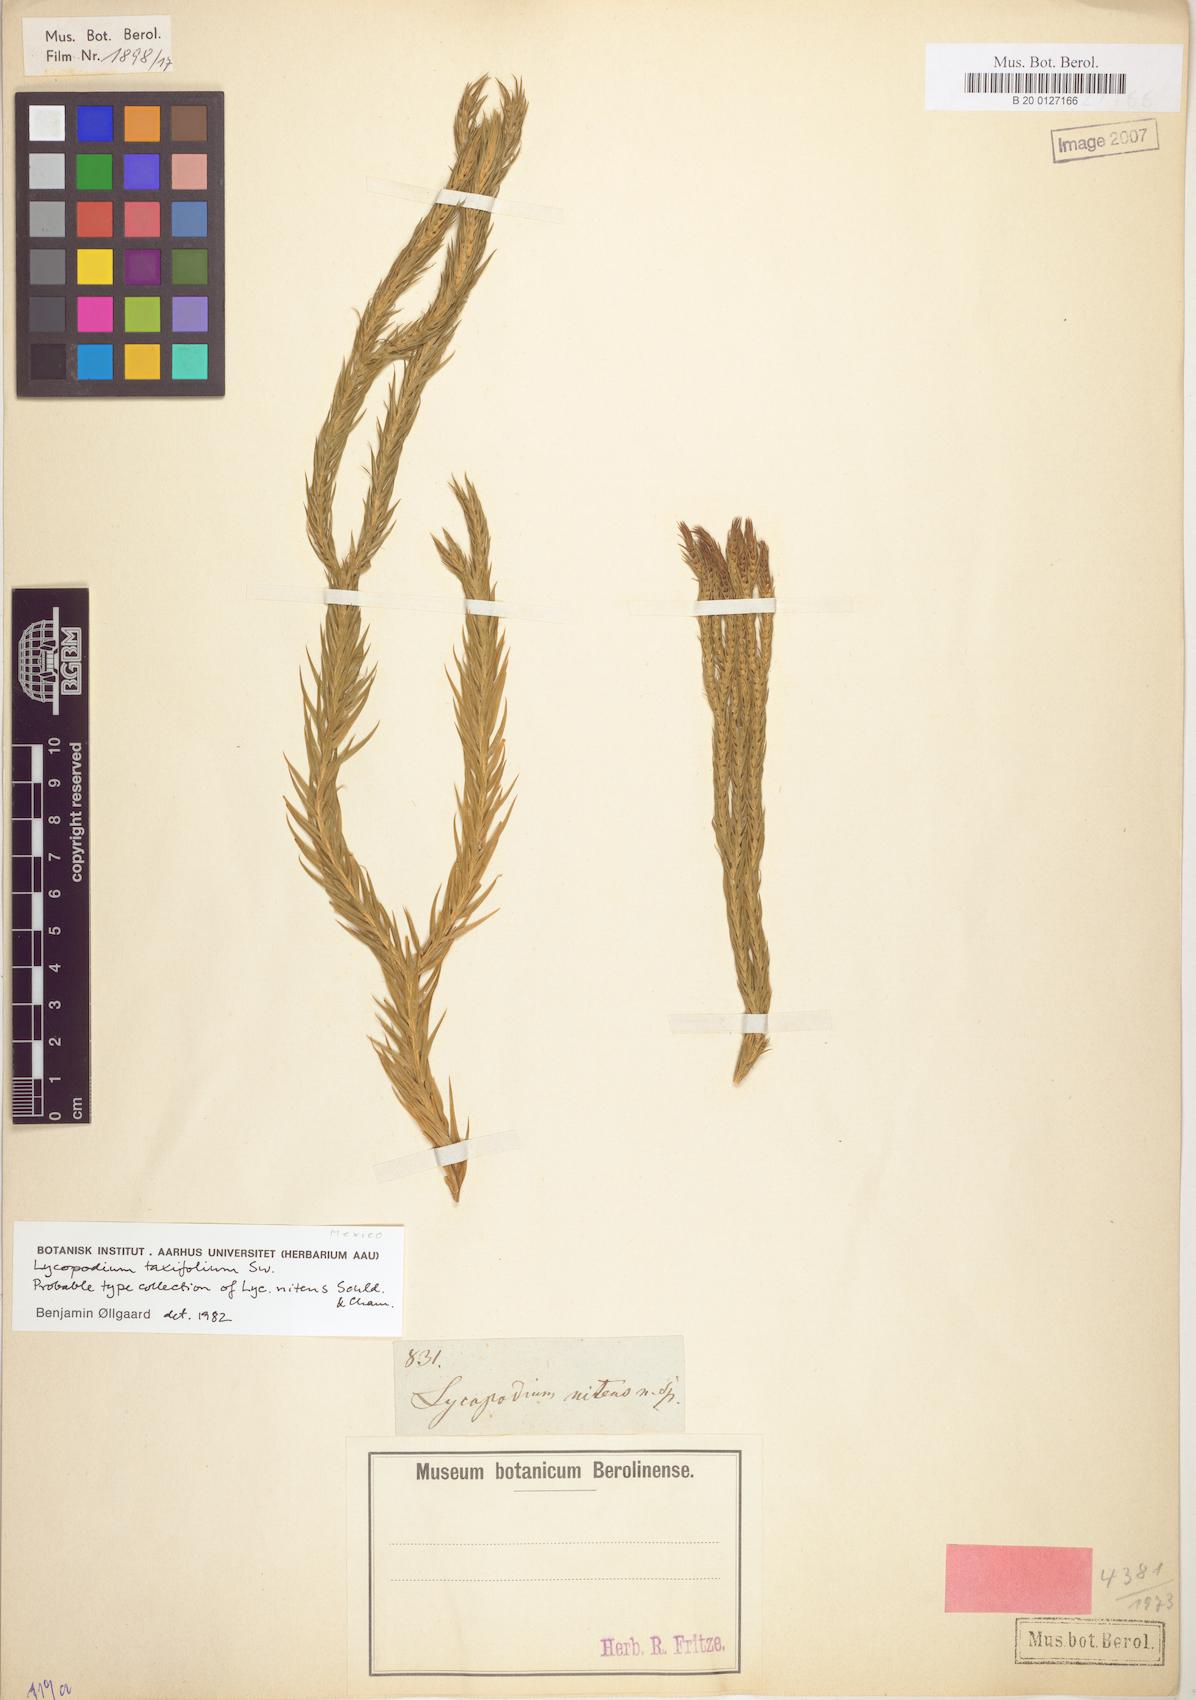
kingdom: Plantae
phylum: Tracheophyta
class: Lycopodiopsida
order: Lycopodiales
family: Lycopodiaceae
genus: Phlegmariurus
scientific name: Phlegmariurus taxifolius
